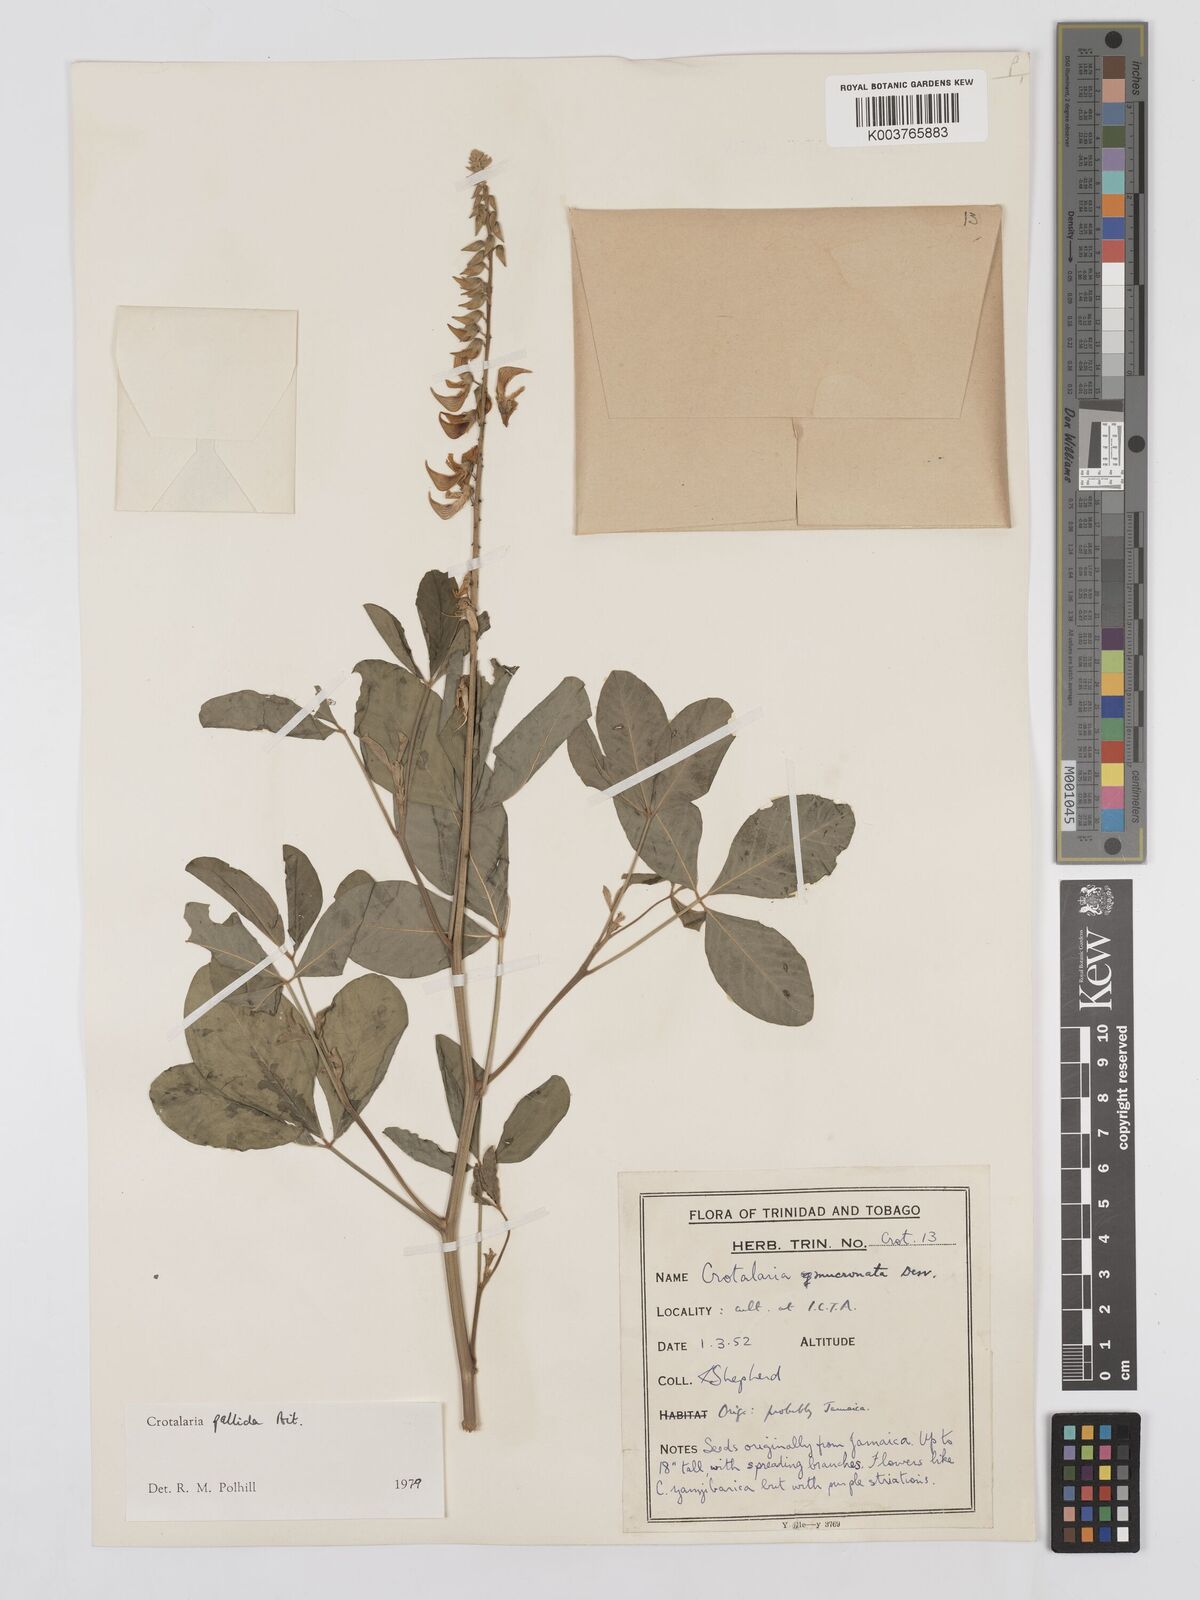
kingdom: Plantae
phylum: Tracheophyta
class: Magnoliopsida
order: Fabales
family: Fabaceae
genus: Crotalaria
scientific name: Crotalaria pallida
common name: Smooth rattlebox
